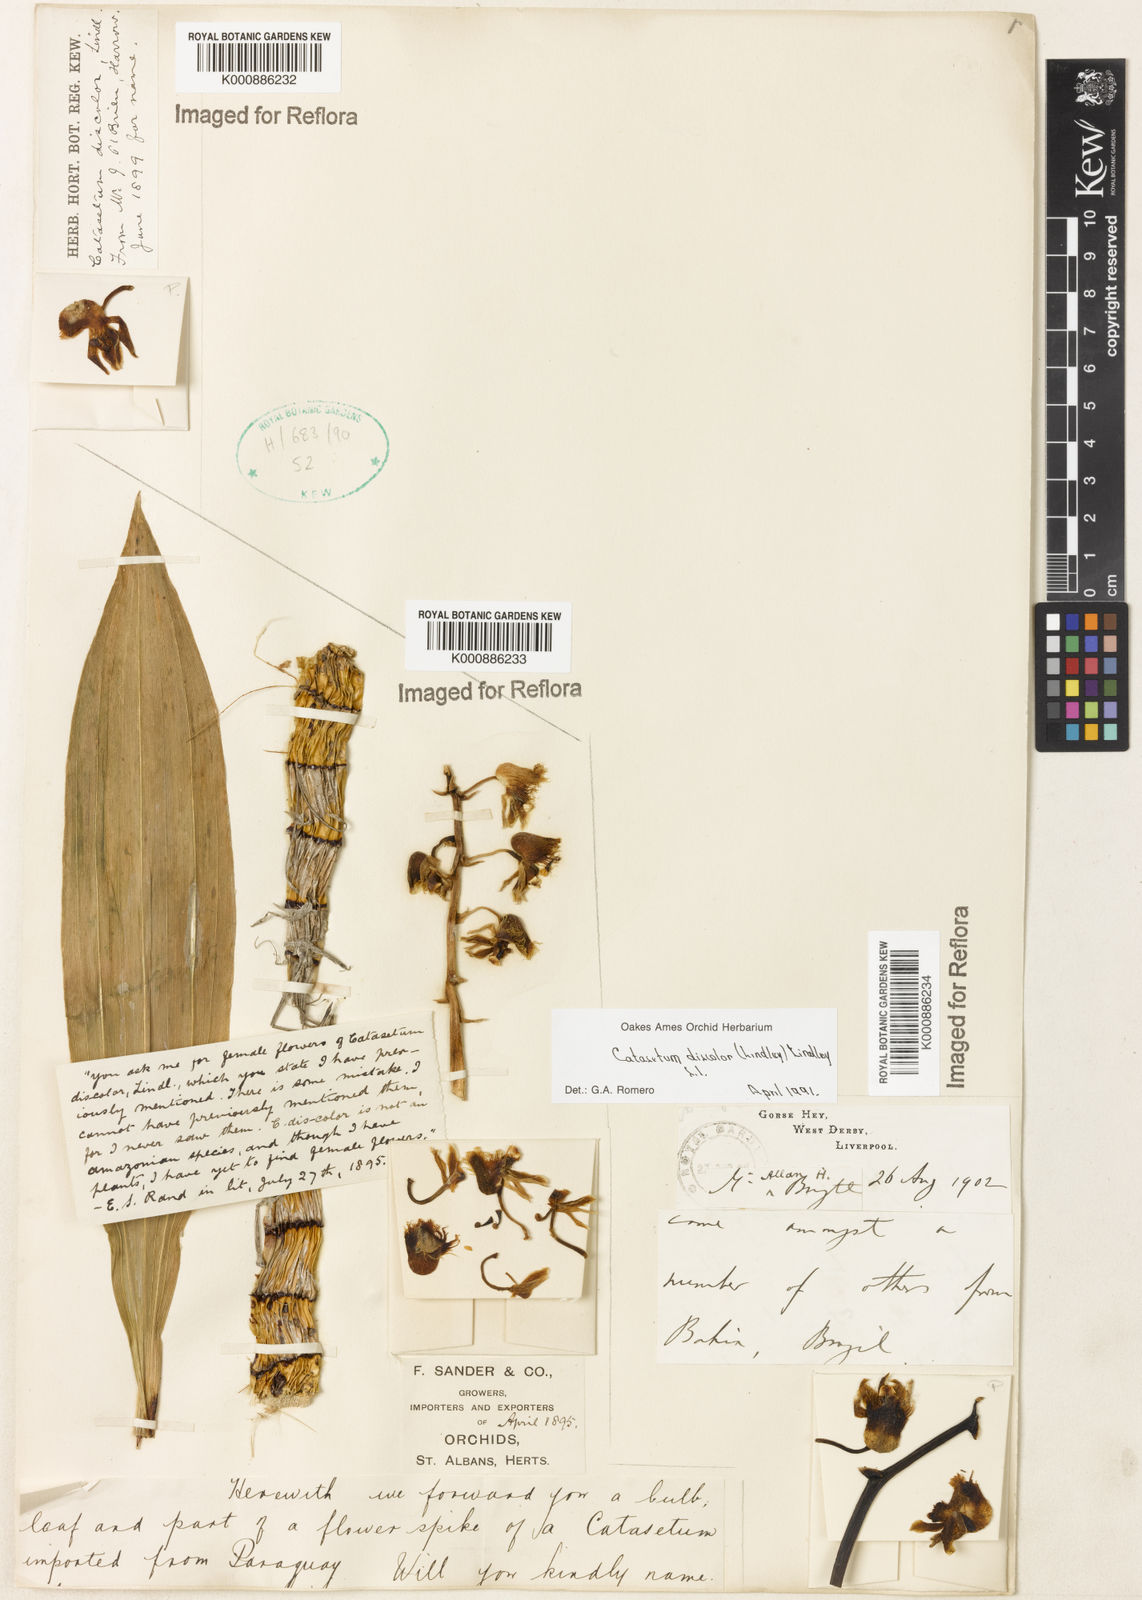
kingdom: Plantae
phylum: Tracheophyta
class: Liliopsida
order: Asparagales
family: Orchidaceae
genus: Catasetum
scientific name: Catasetum discolor
